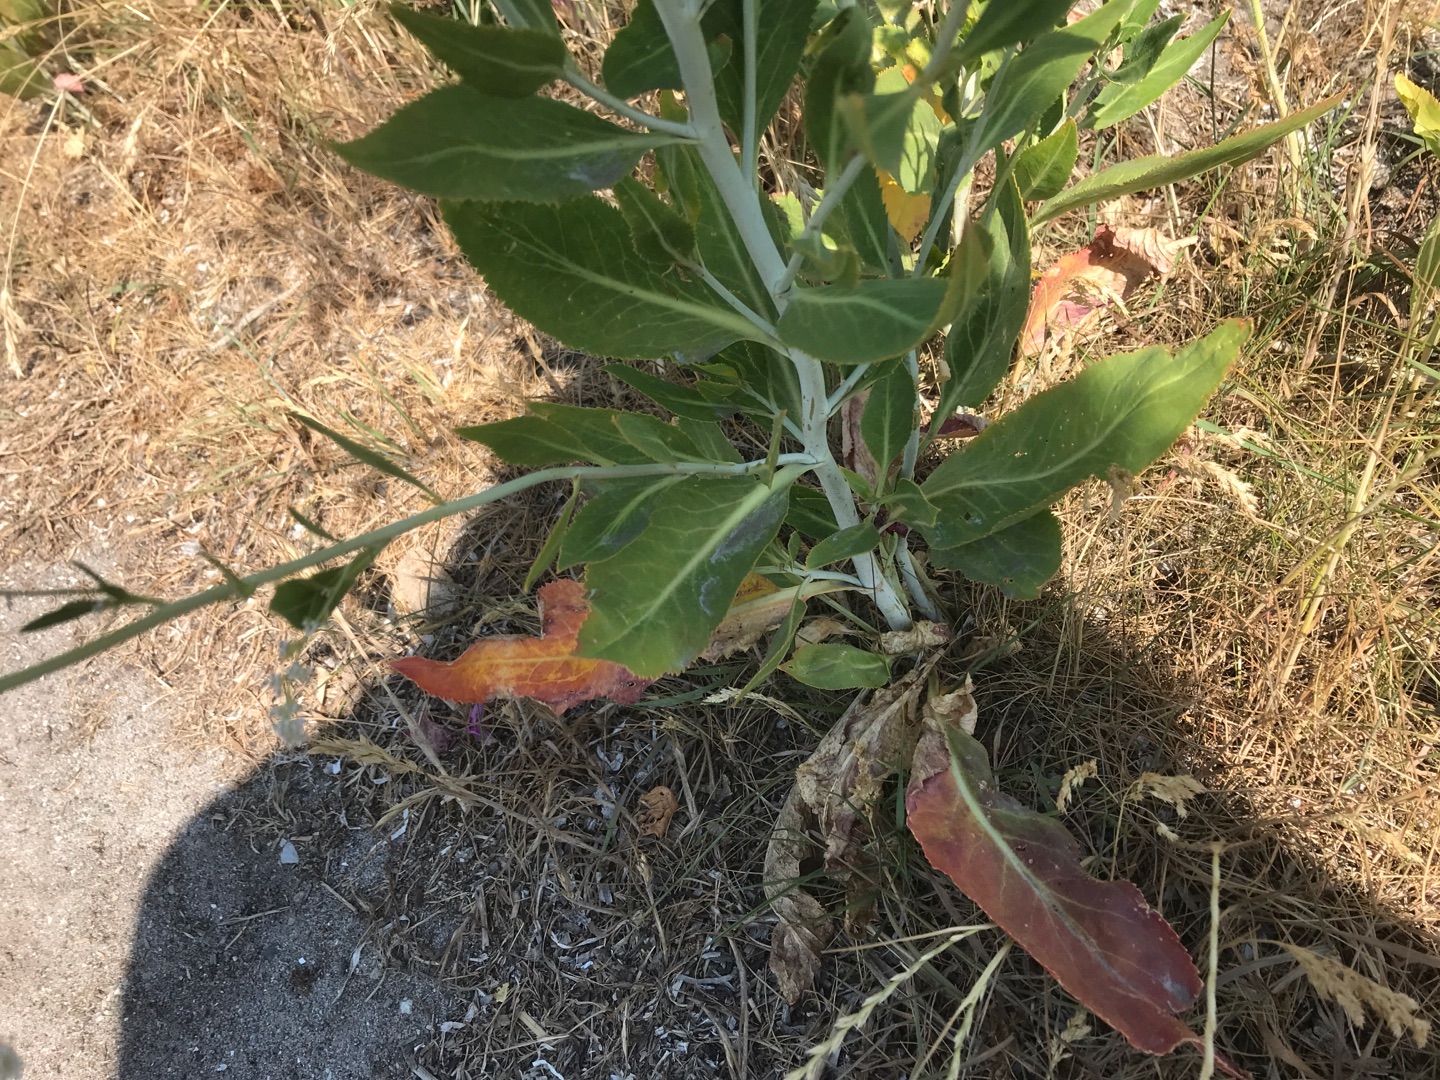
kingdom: Plantae
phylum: Tracheophyta
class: Magnoliopsida
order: Brassicales
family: Brassicaceae
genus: Lepidium
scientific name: Lepidium latifolium
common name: Strand-karse
